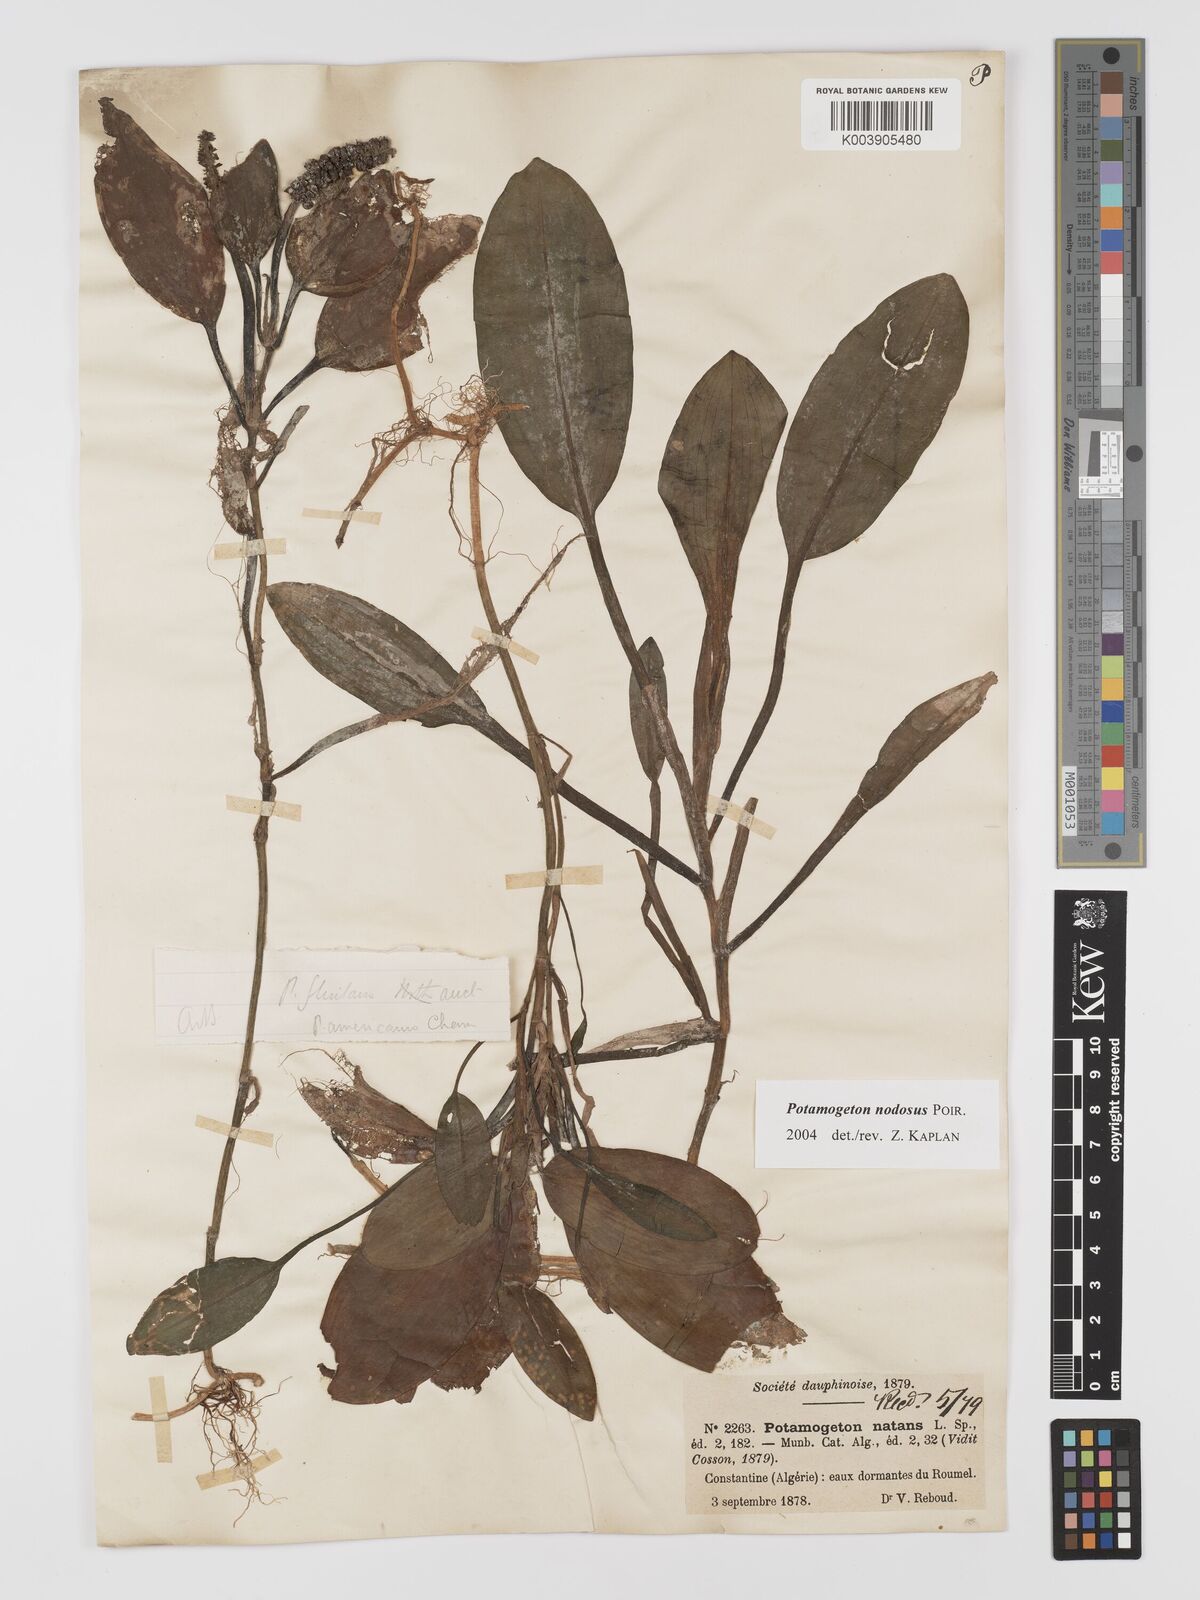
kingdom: Plantae
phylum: Tracheophyta
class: Liliopsida
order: Alismatales
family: Potamogetonaceae
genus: Potamogeton
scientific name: Potamogeton nodosus
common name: Loddon pondweed
